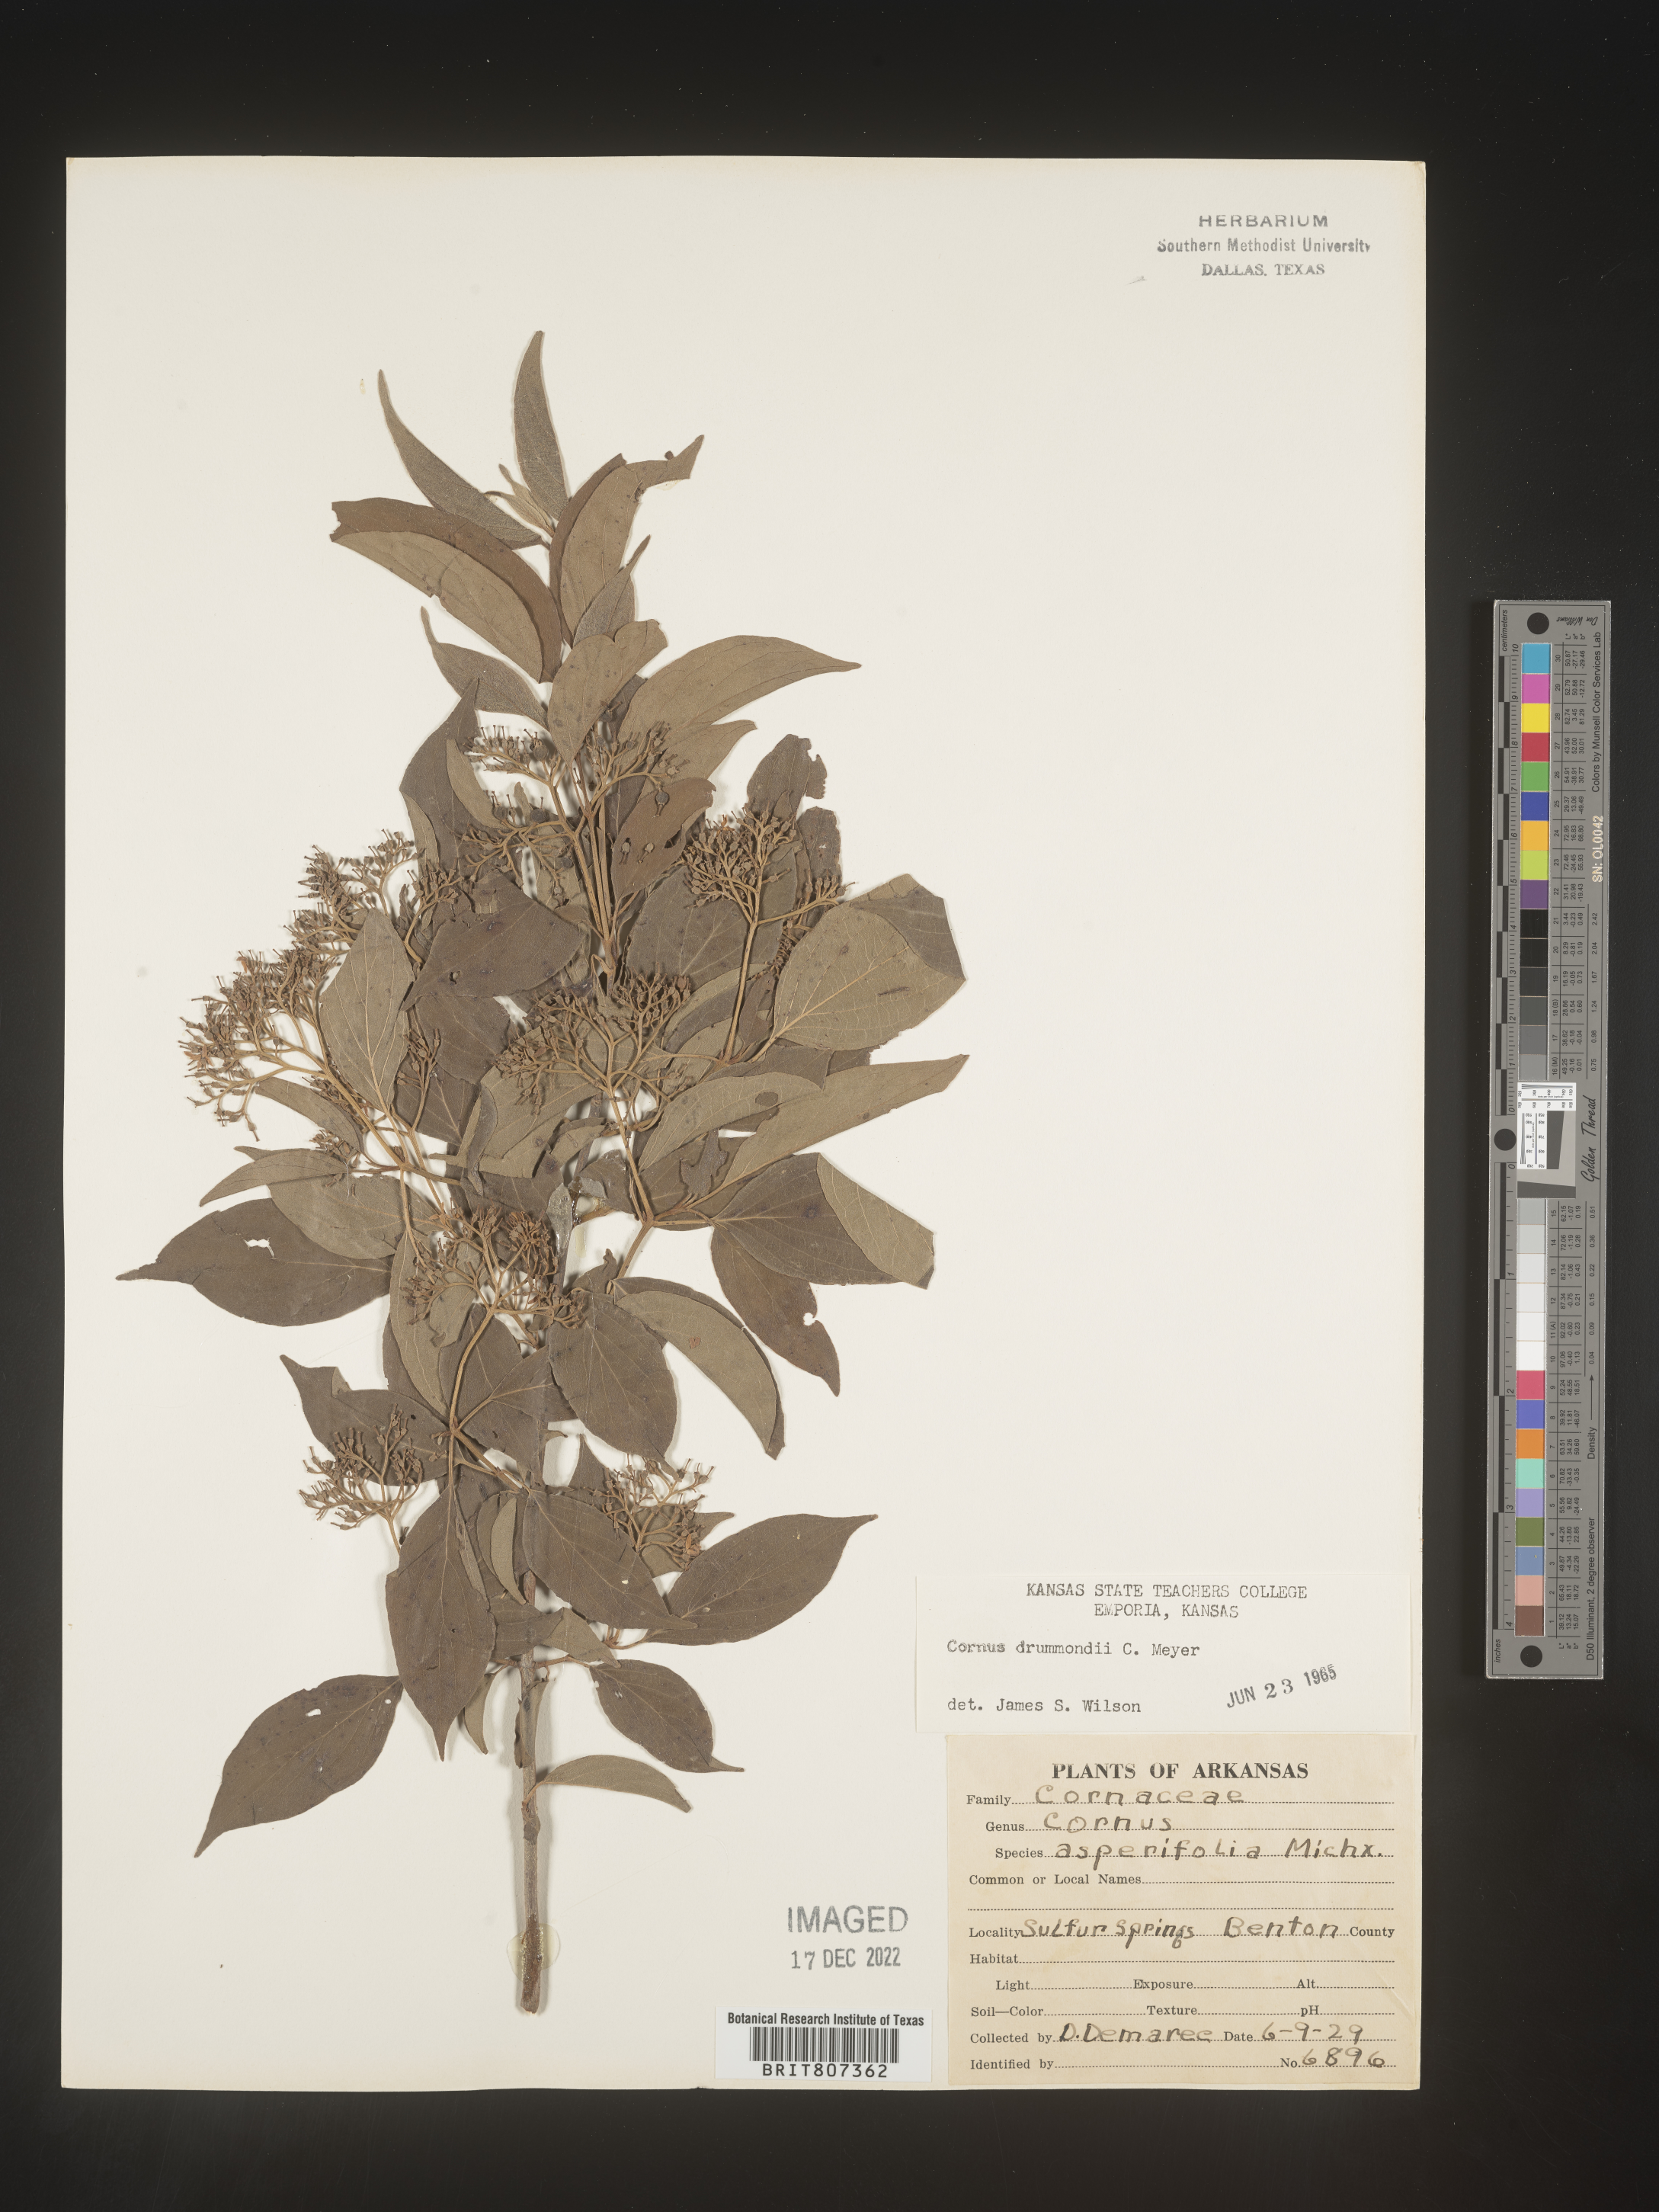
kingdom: Plantae
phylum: Tracheophyta
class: Magnoliopsida
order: Cornales
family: Cornaceae
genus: Cornus
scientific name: Cornus drummondii
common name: Rough-leaf dogwood
